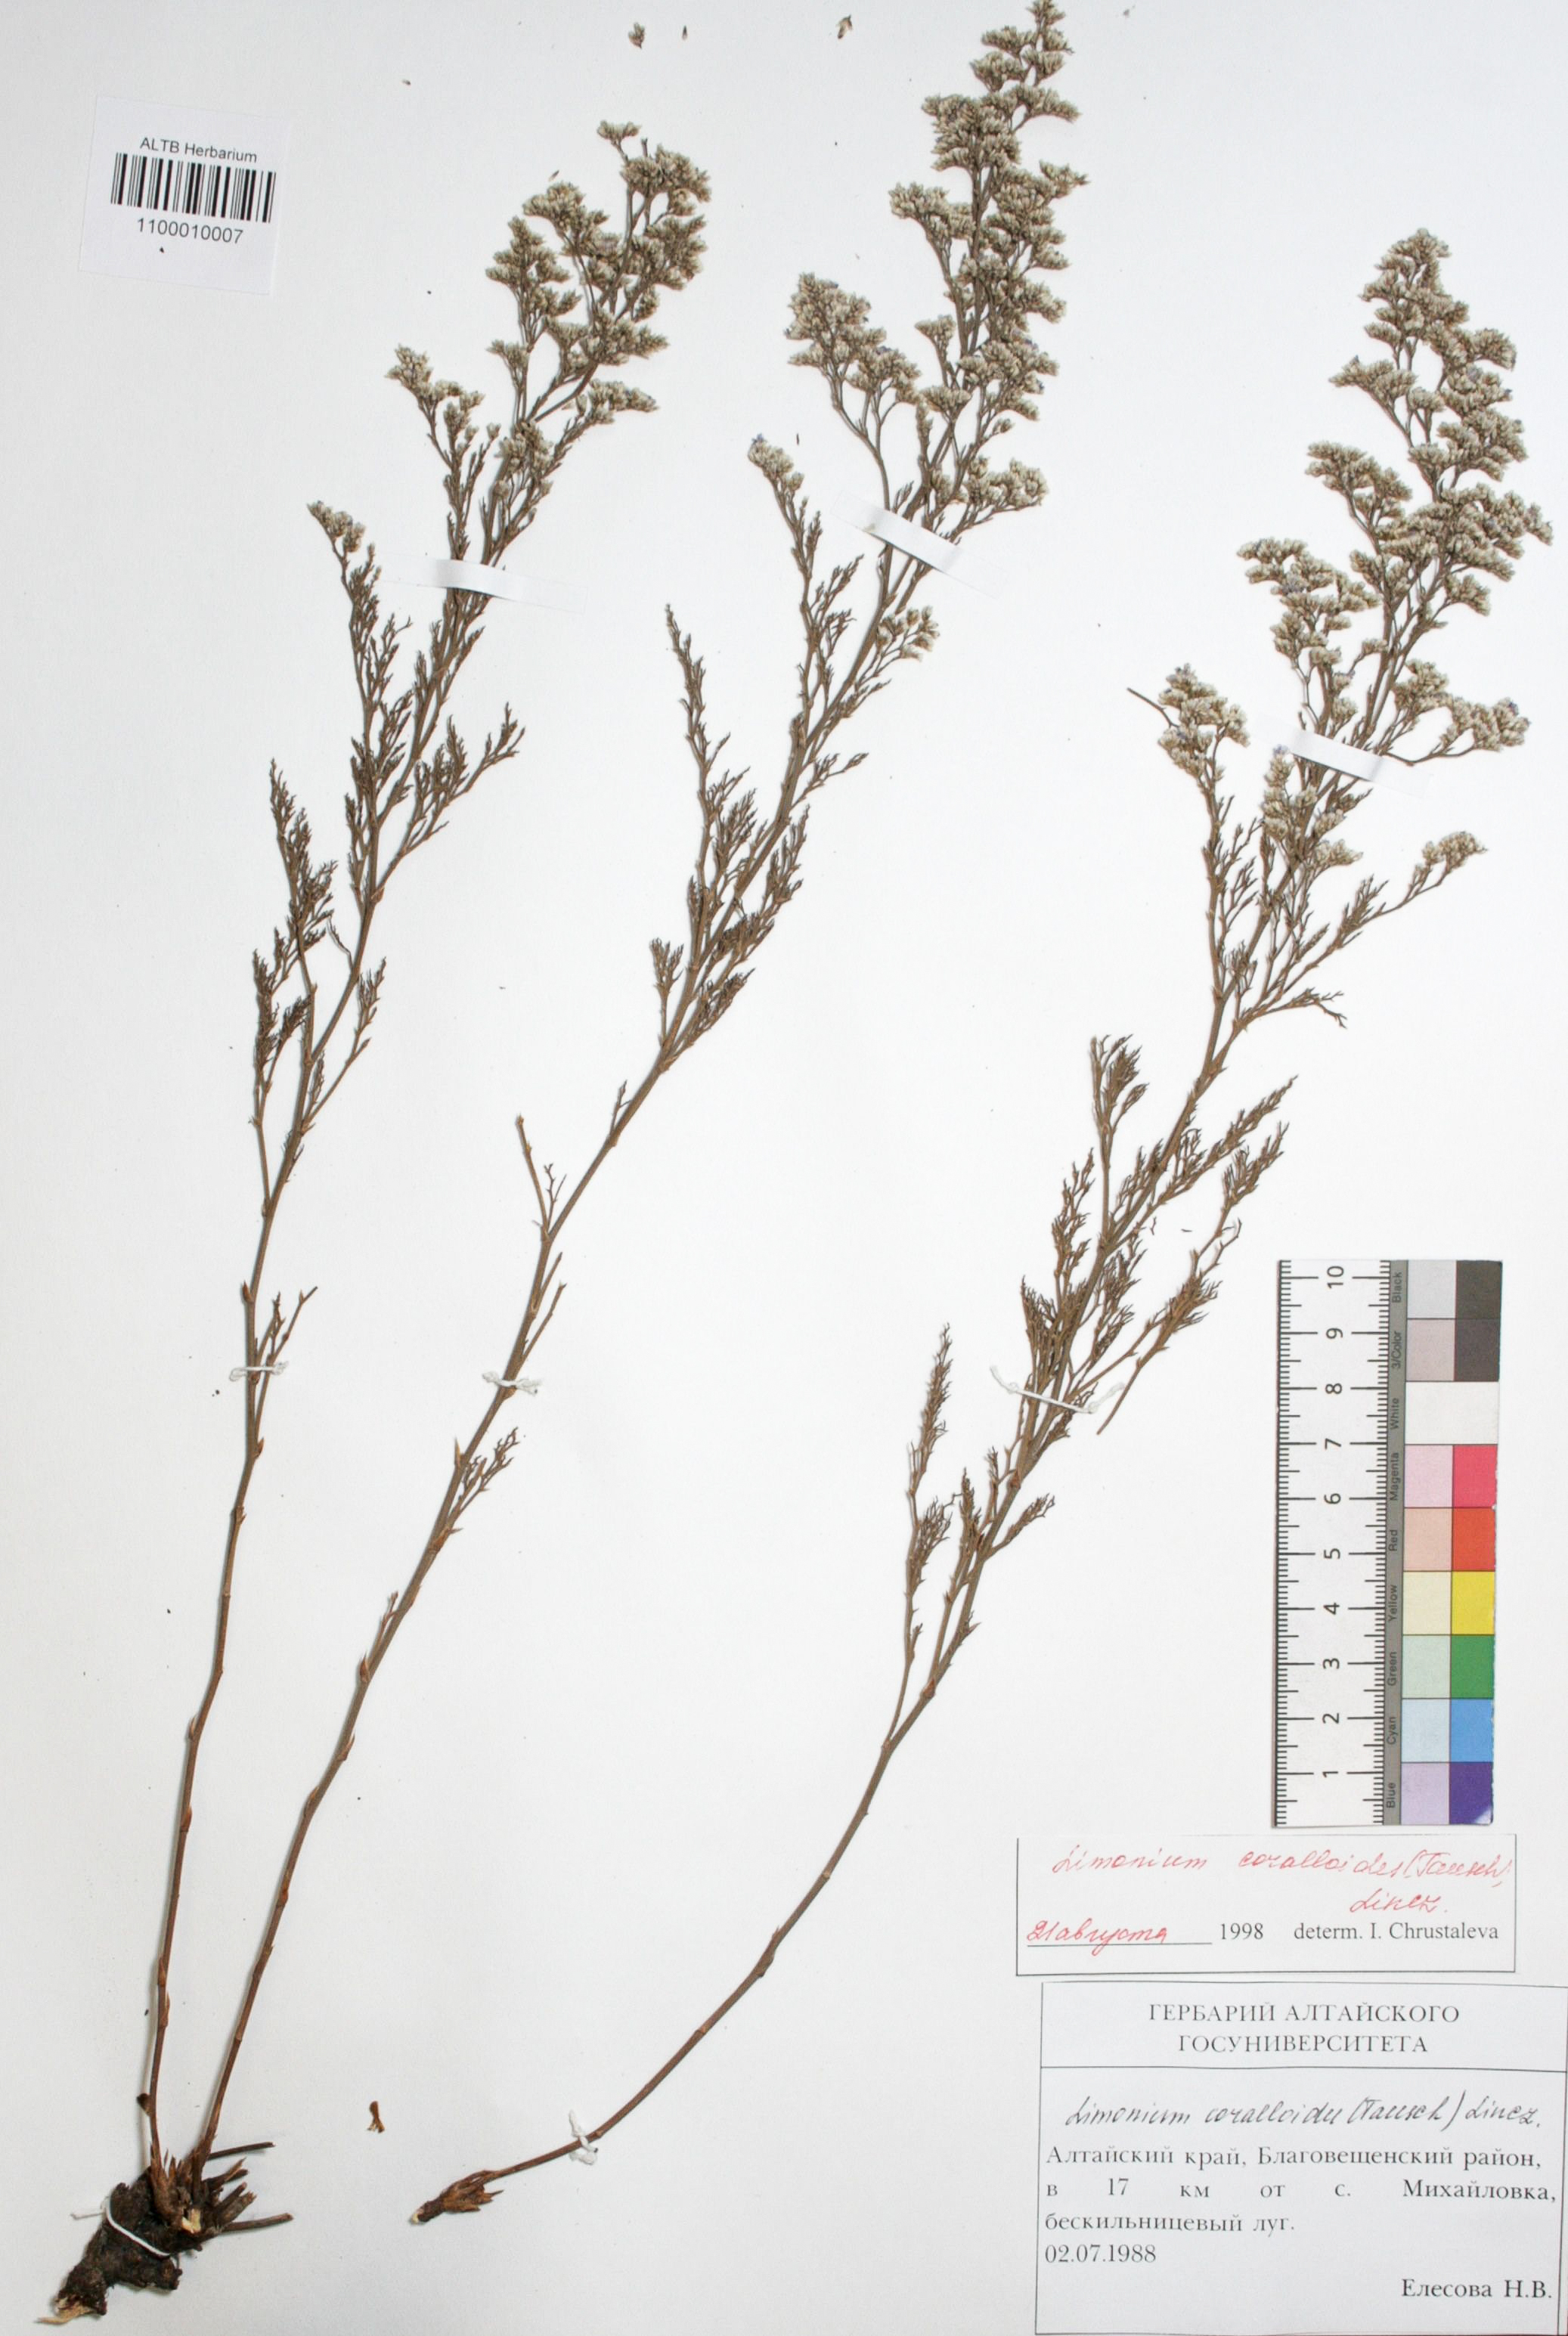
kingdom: Plantae
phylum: Tracheophyta
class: Magnoliopsida
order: Caryophyllales
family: Plumbaginaceae
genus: Limonium
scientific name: Limonium coralloides
